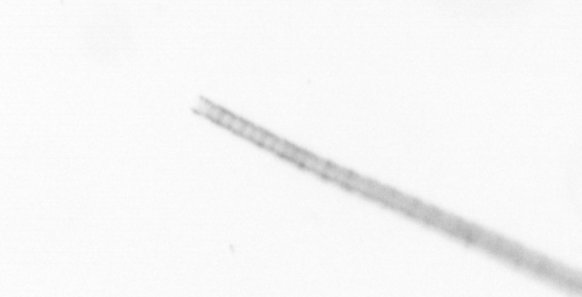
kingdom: Chromista
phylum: Ochrophyta
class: Bacillariophyceae
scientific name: Bacillariophyceae
